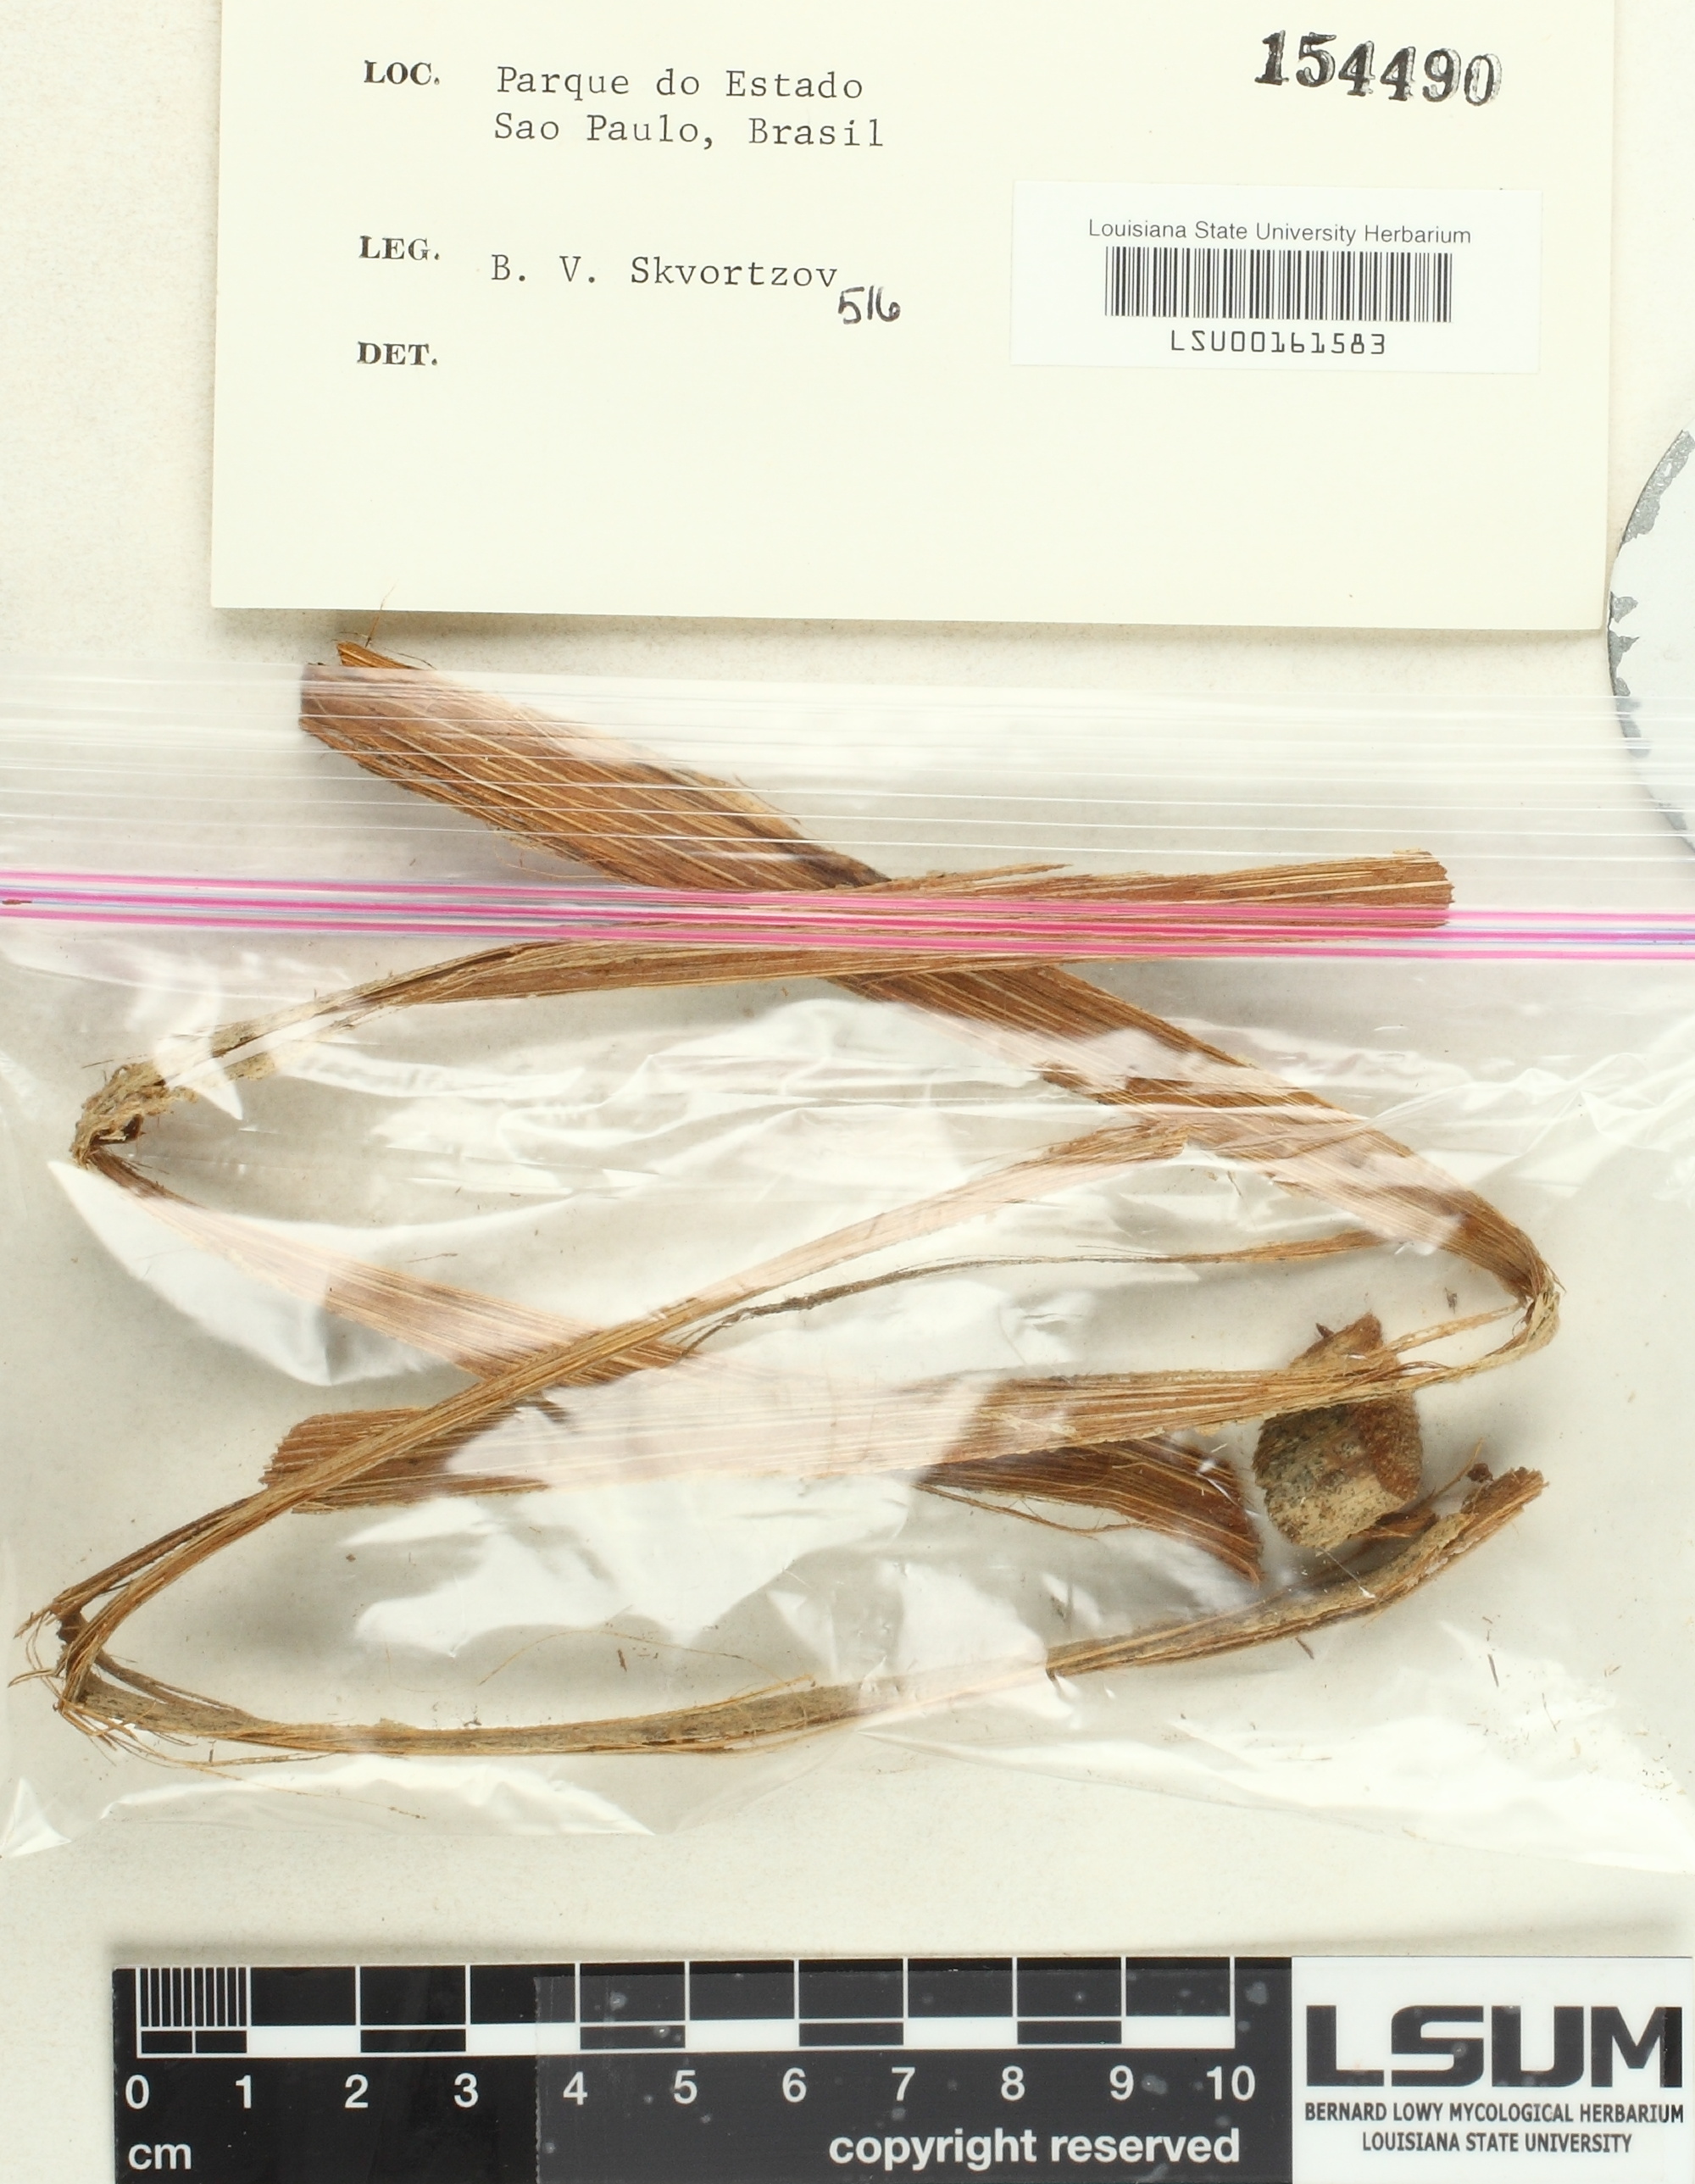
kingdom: Fungi
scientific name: Fungi
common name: Fungi
